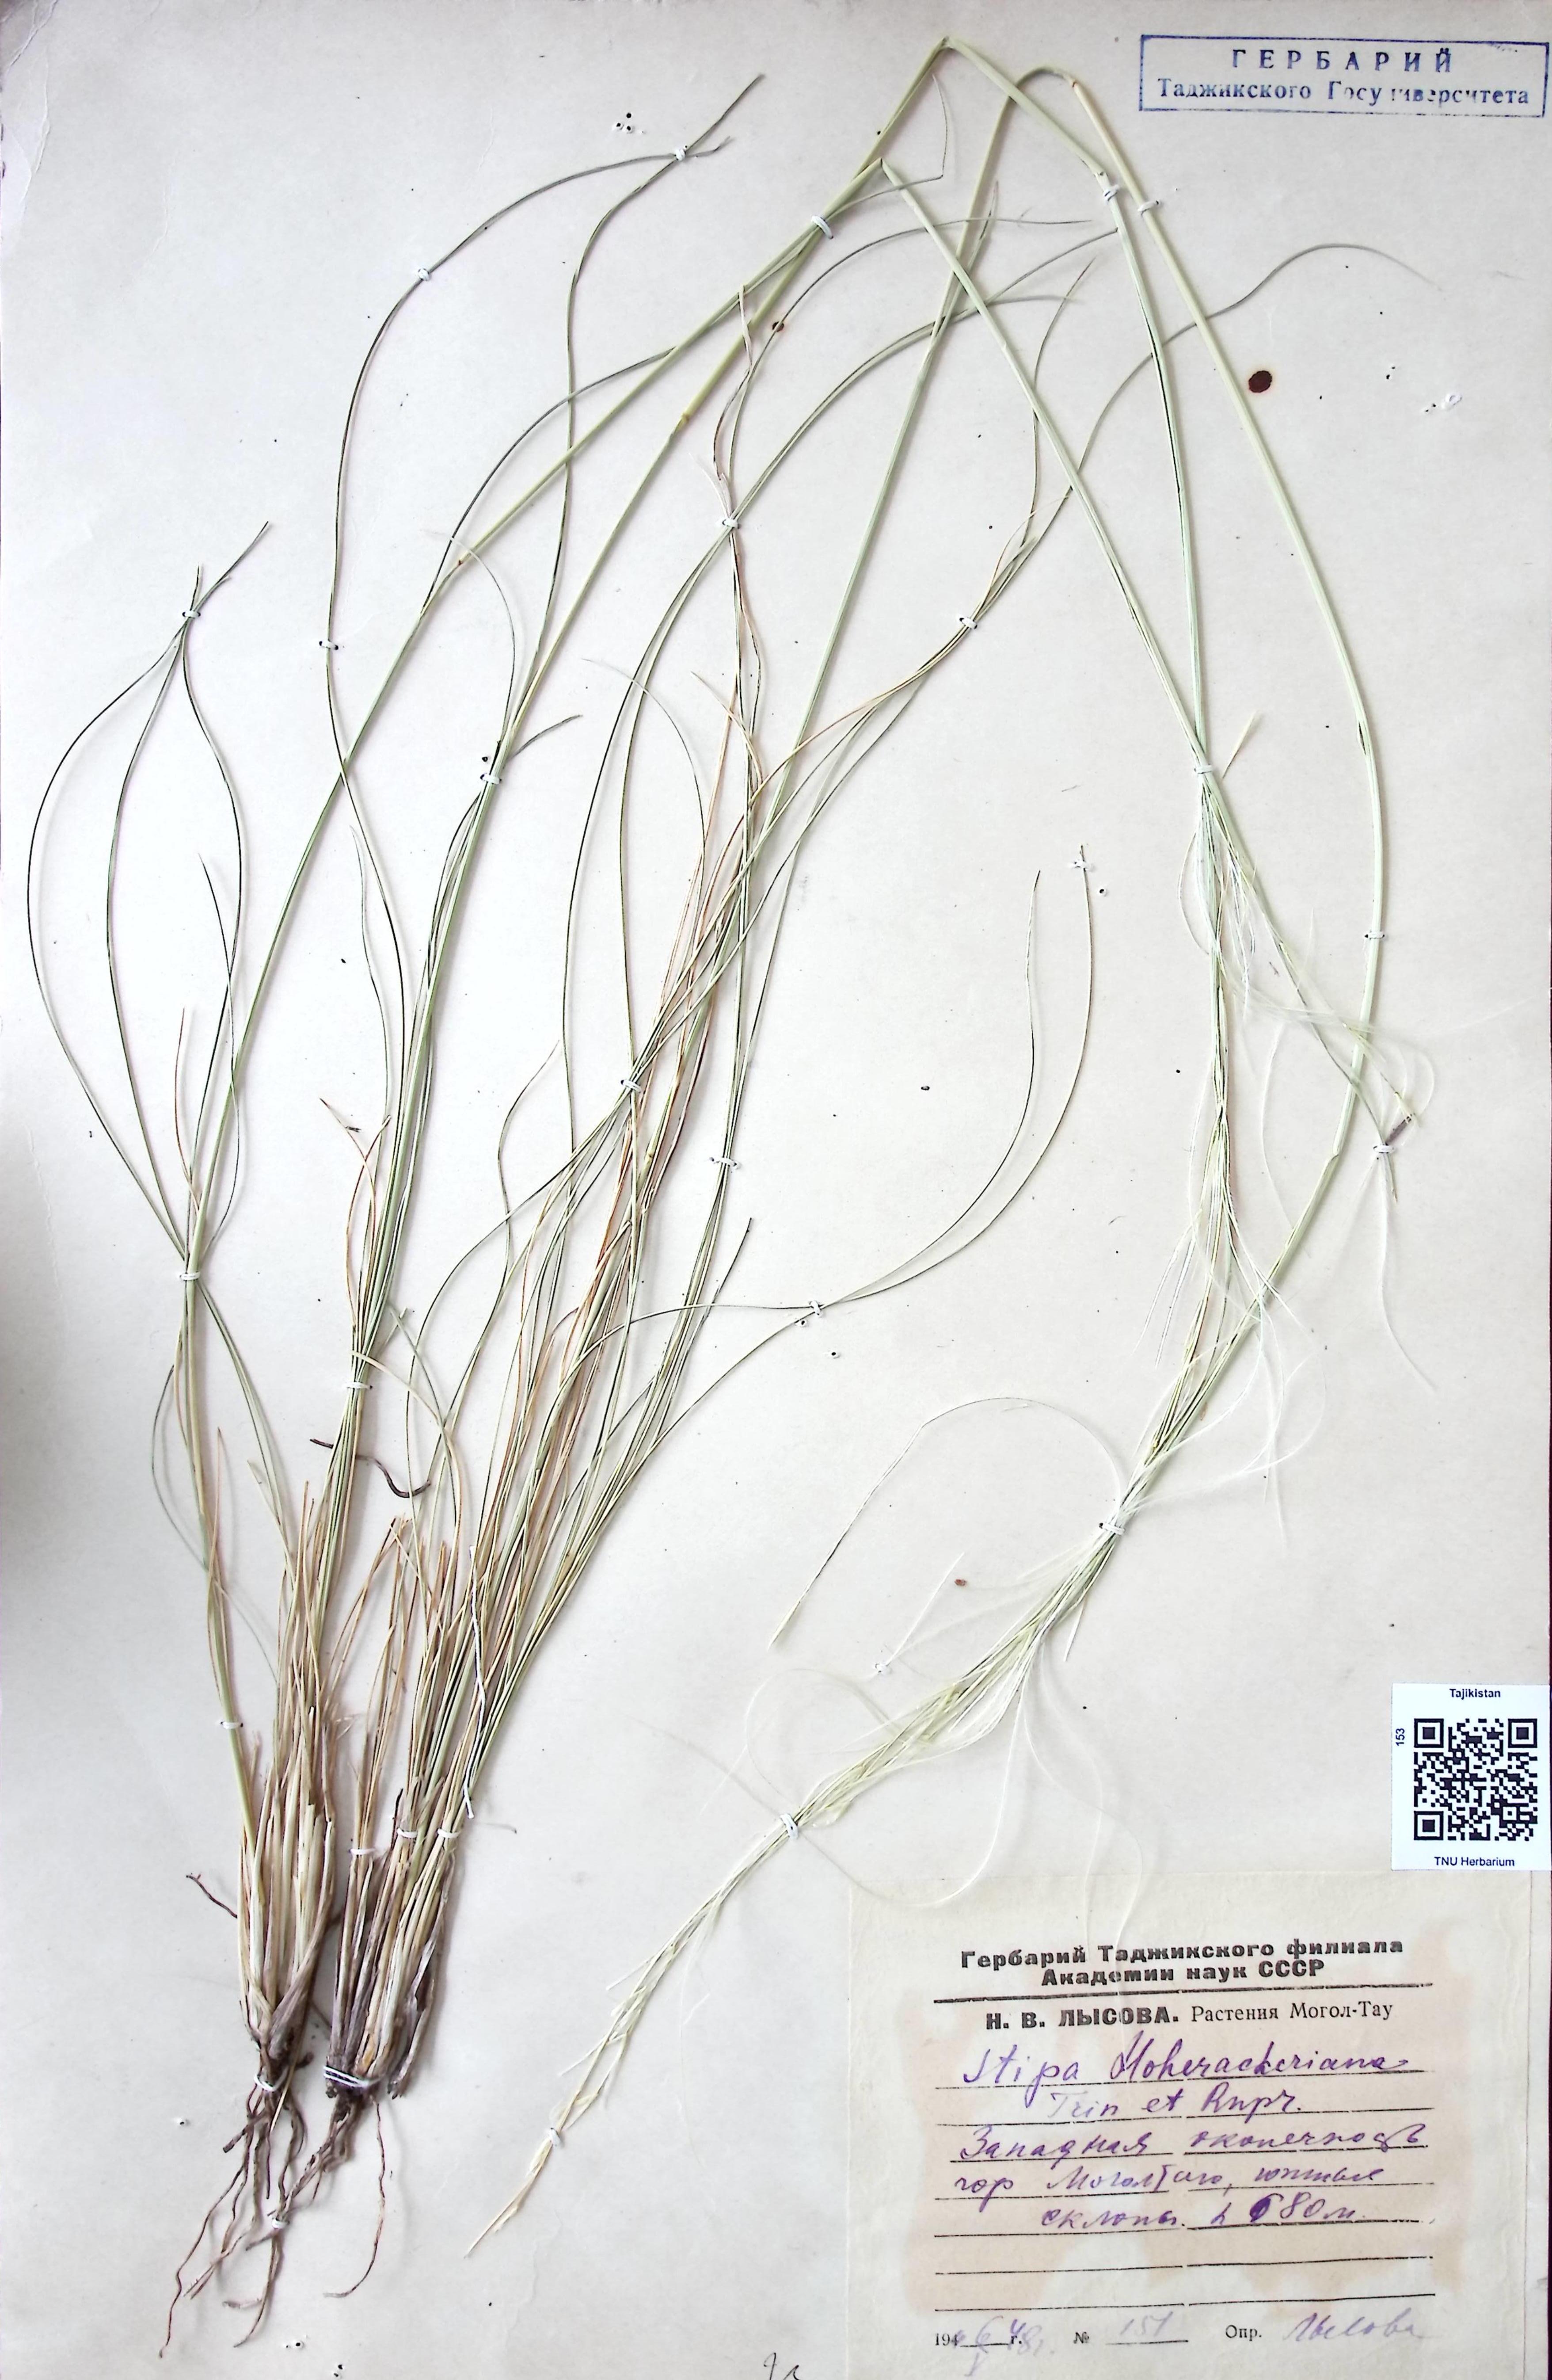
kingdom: Plantae
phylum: Tracheophyta
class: Liliopsida
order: Poales
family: Poaceae
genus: Stipa
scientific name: Stipa hohenackeriana
